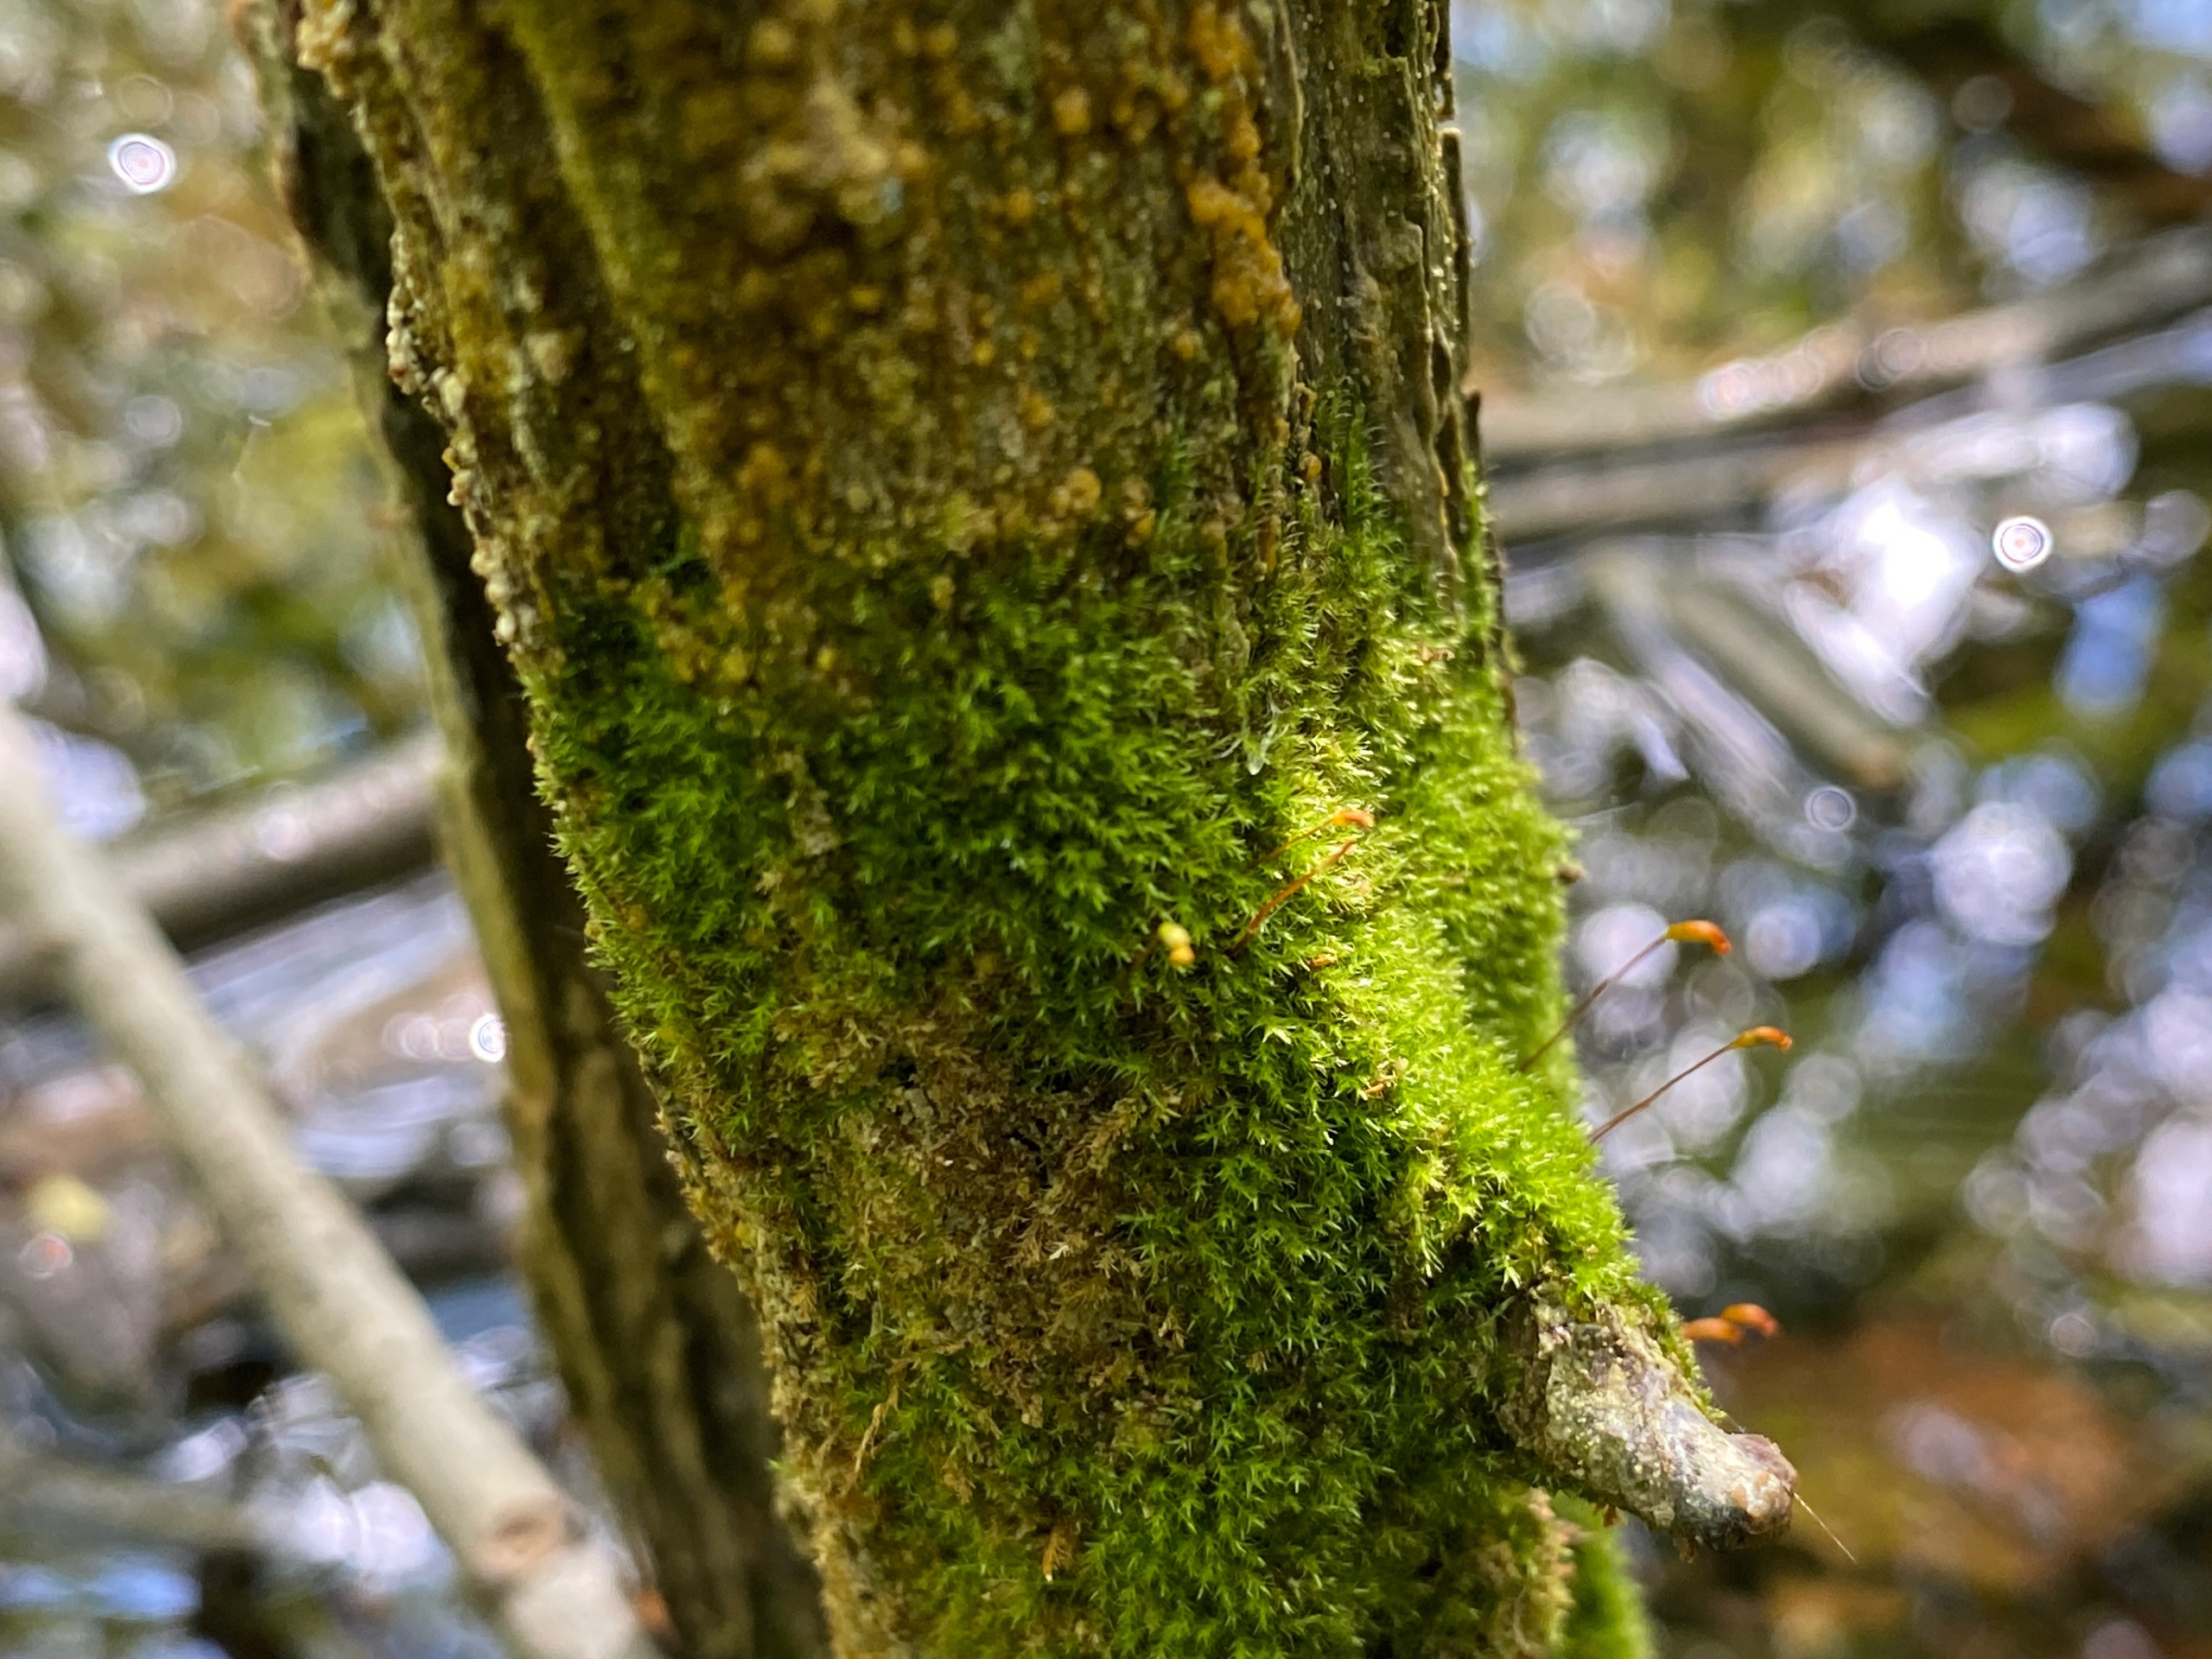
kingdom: Plantae
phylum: Bryophyta
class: Bryopsida
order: Hypnales
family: Amblystegiaceae
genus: Amblystegium
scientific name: Amblystegium serpens
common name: Almindelig krybmos
